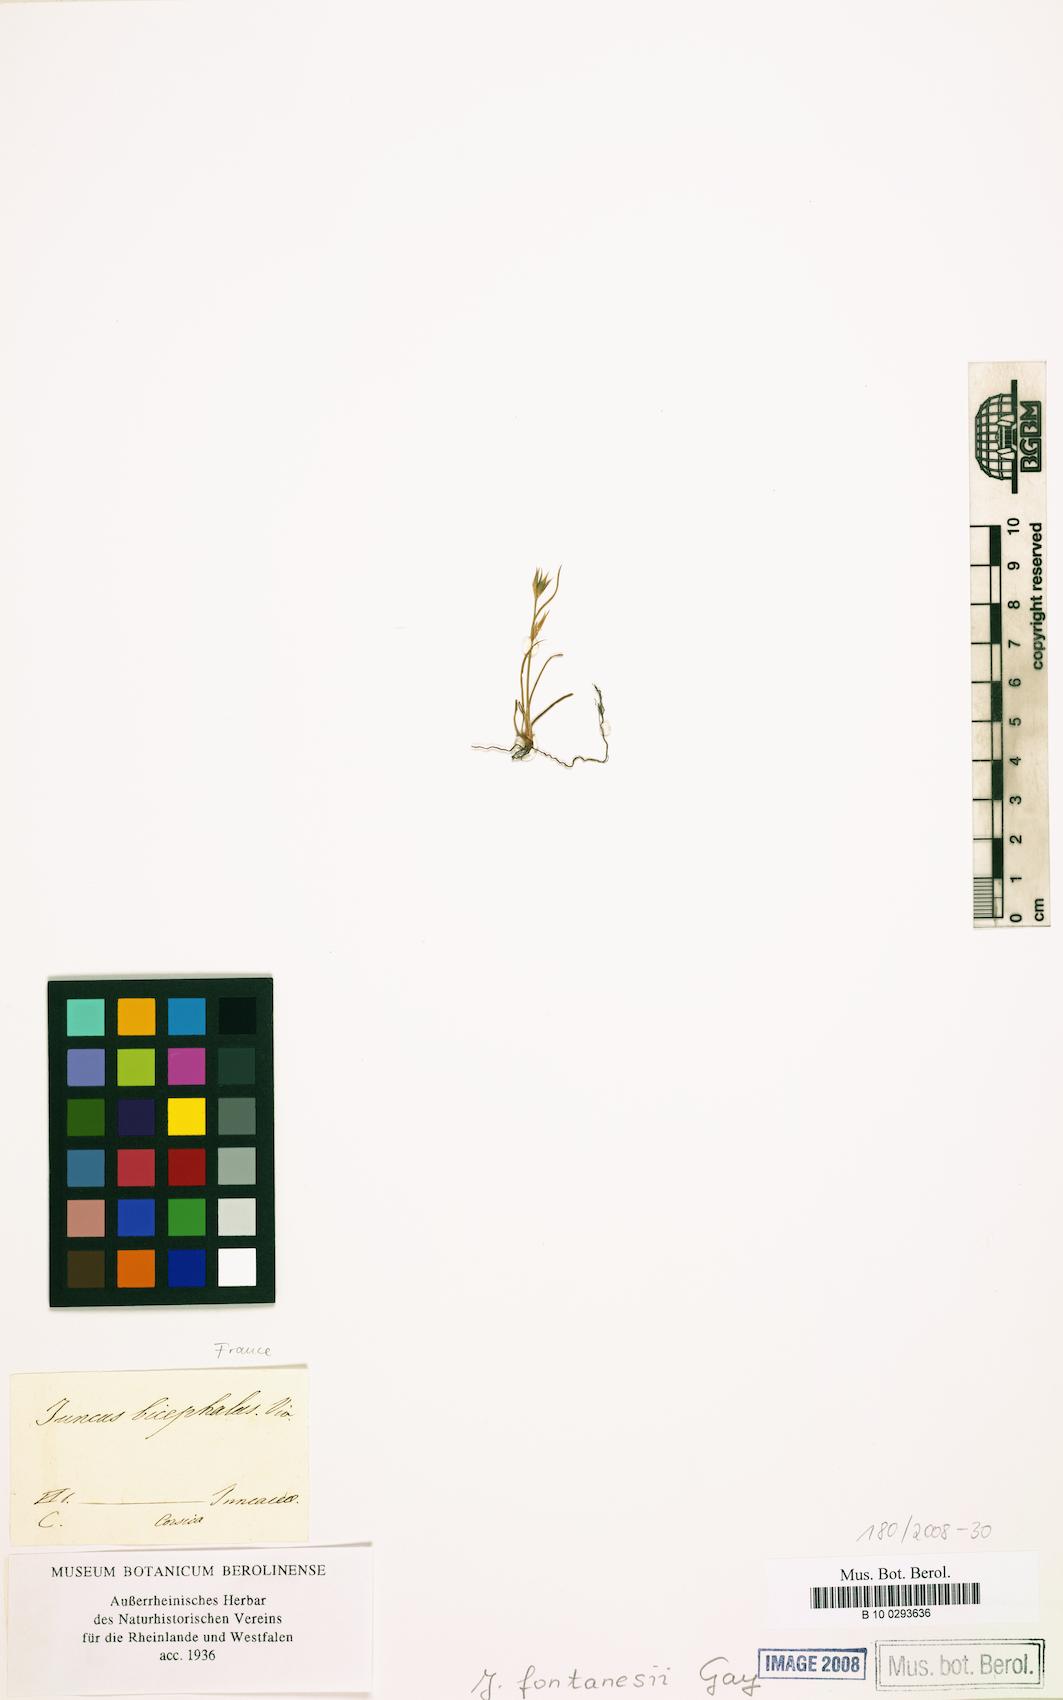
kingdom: Plantae
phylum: Tracheophyta
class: Liliopsida
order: Poales
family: Juncaceae
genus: Juncus
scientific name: Juncus fontanesii
